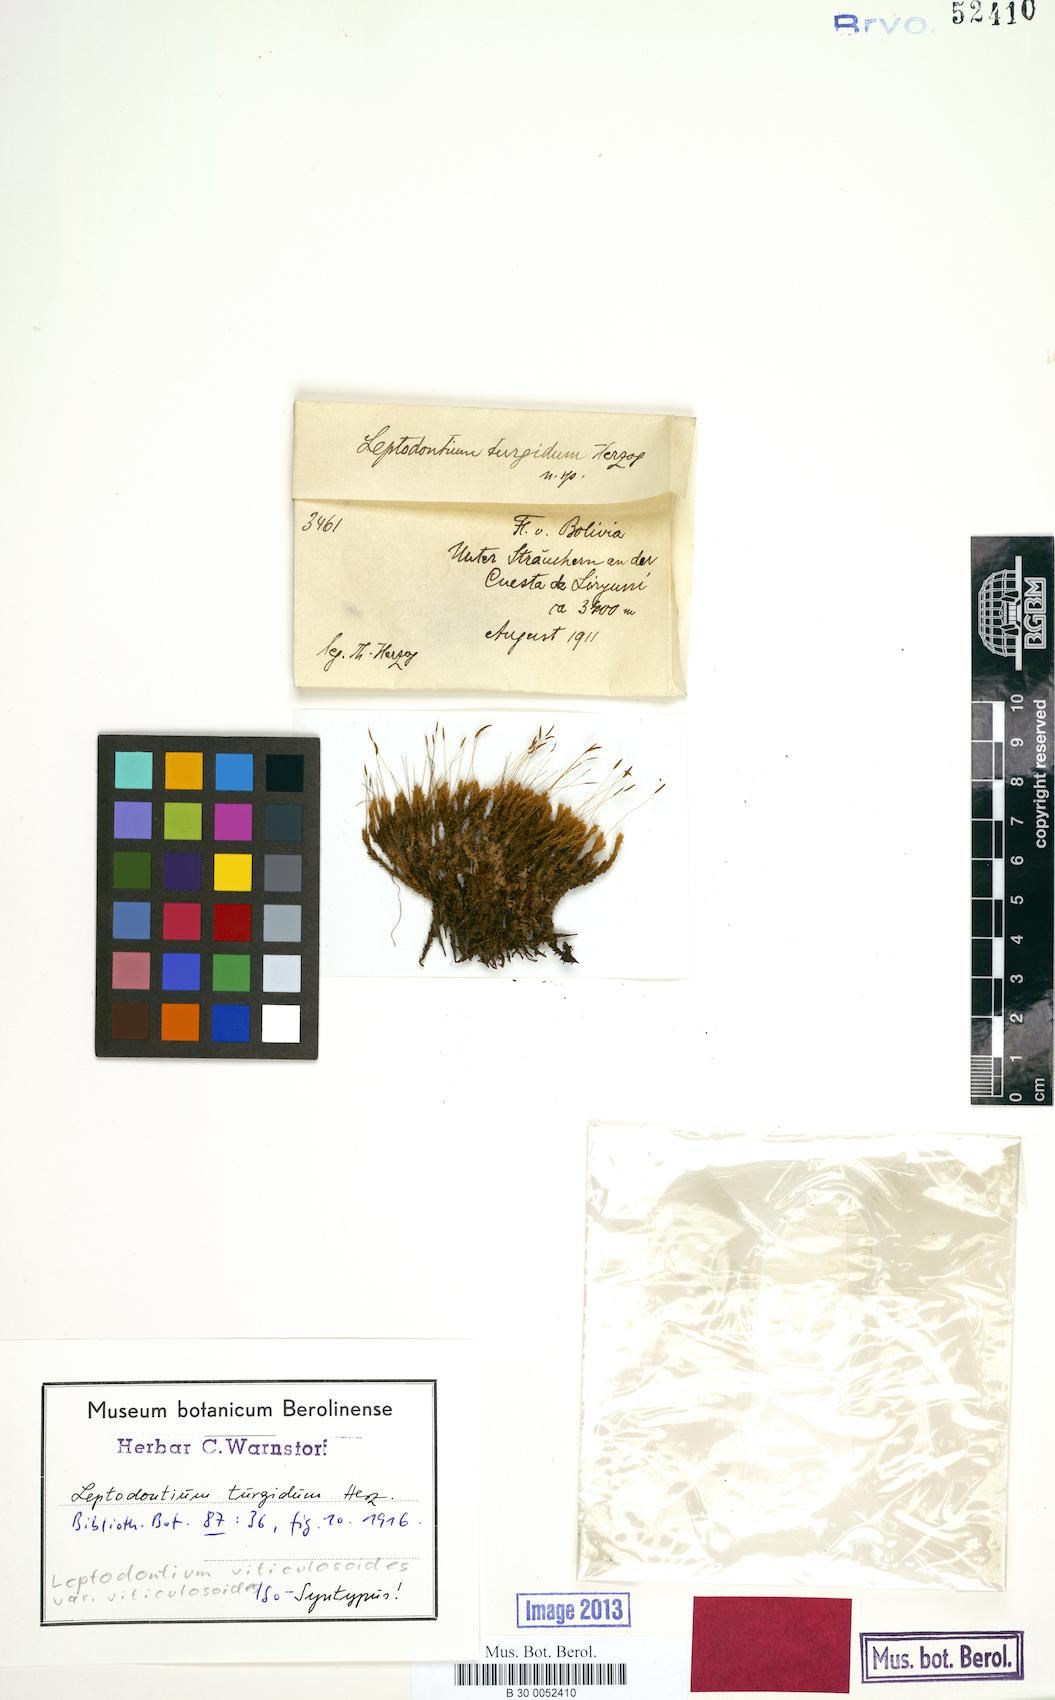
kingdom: Plantae
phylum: Bryophyta
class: Bryopsida
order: Pottiales
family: Pottiaceae
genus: Leptodontium
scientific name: Leptodontium viticulosoides
